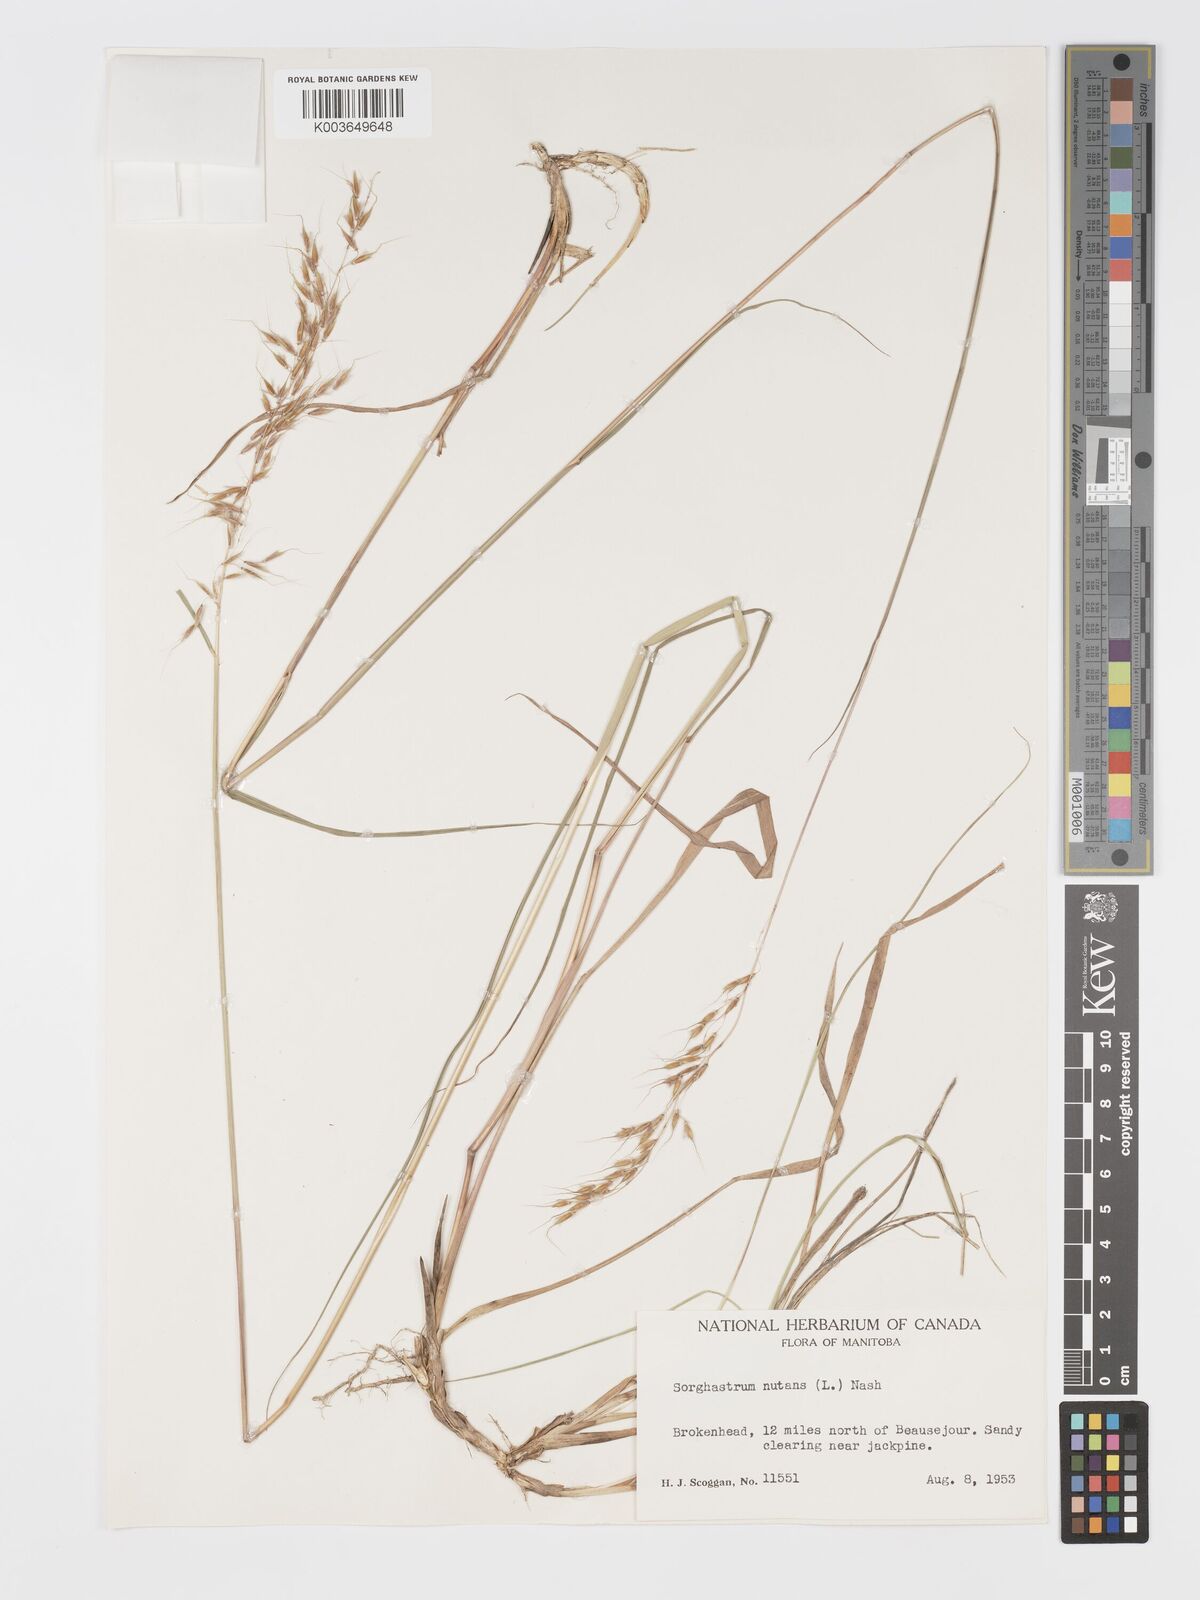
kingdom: Plantae
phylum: Tracheophyta
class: Liliopsida
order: Poales
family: Poaceae
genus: Sorghastrum
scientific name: Sorghastrum nutans
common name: Indian grass
